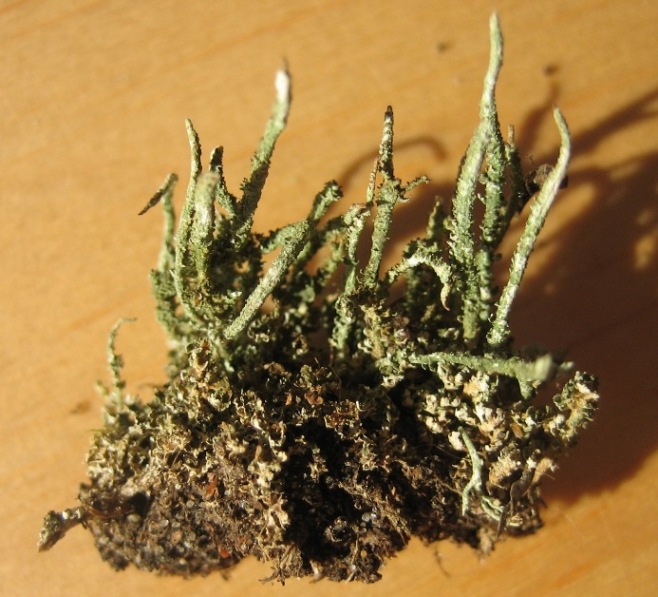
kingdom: Fungi
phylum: Ascomycota
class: Lecanoromycetes
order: Lecanorales
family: Cladoniaceae
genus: Cladonia
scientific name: Cladonia glauca
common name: grågrøn bægerlav
